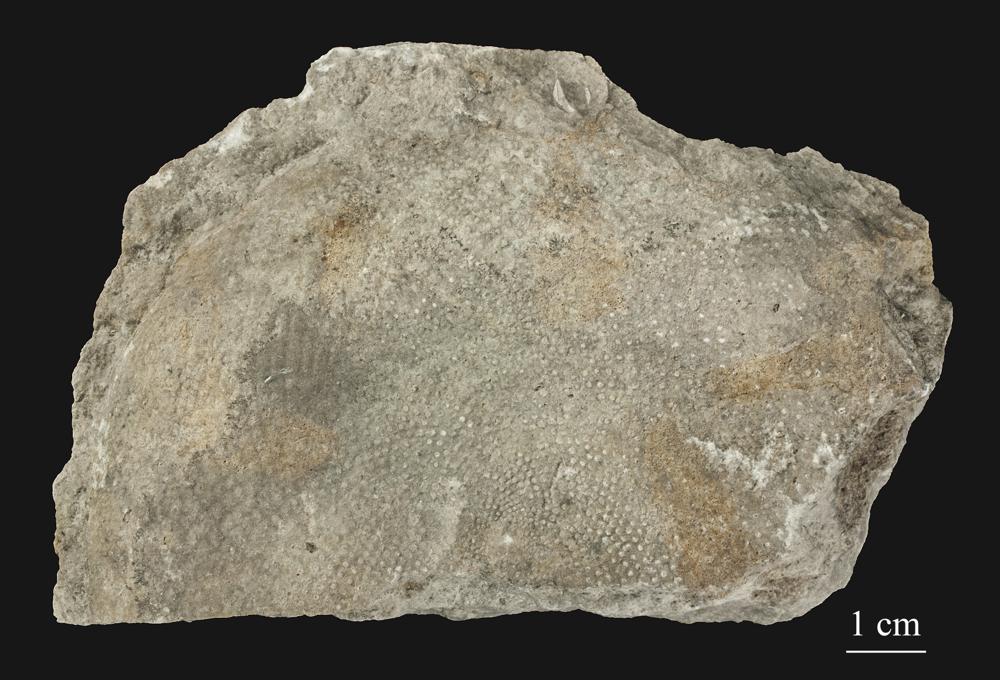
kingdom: Plantae
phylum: Chlorophyta
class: Chlorophyceae
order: Receptaculitales
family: Receptaculitaceae
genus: Receptaculites
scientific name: Receptaculites
